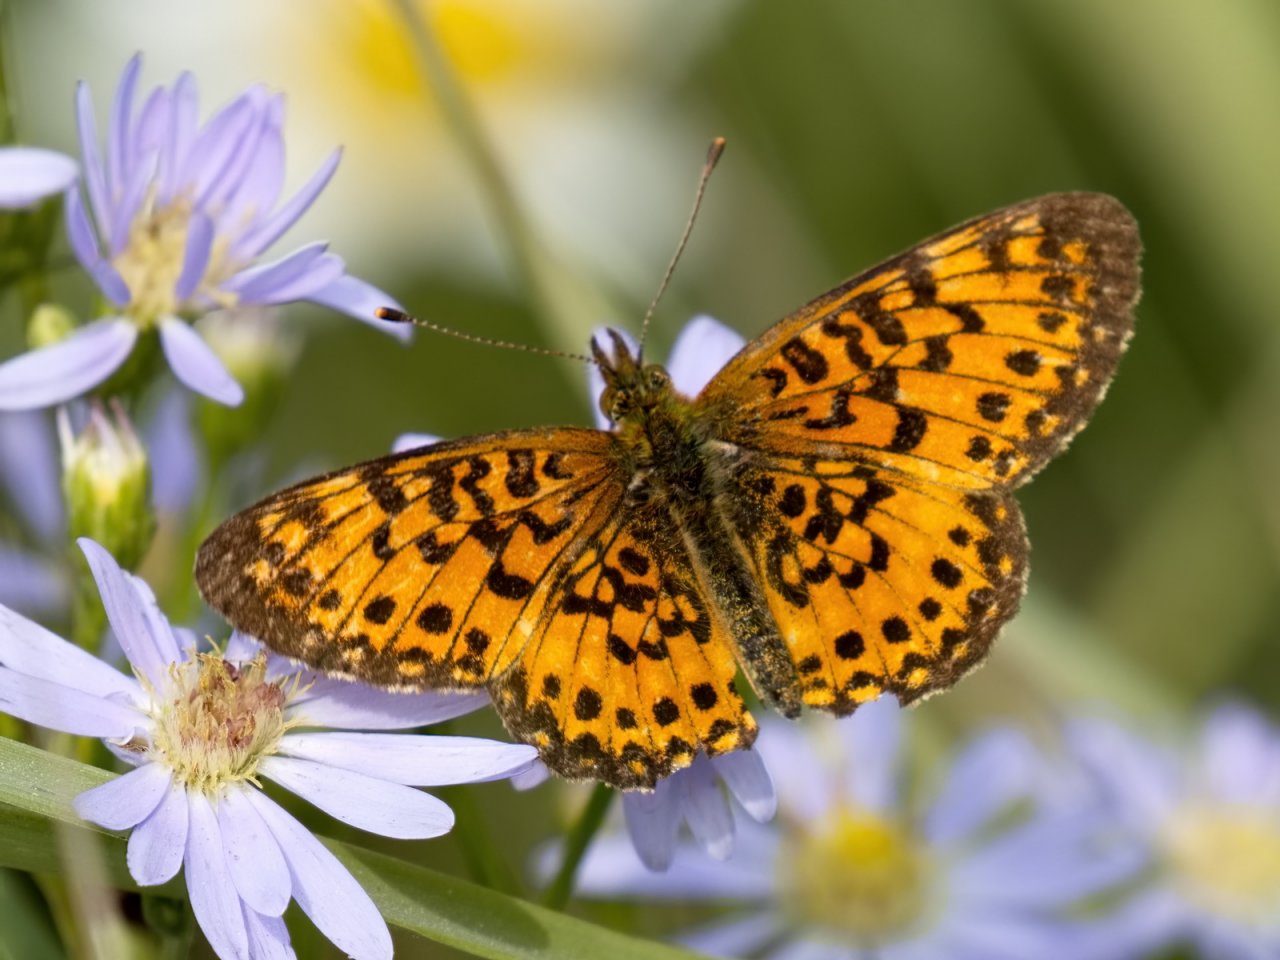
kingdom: Animalia
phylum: Arthropoda
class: Insecta
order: Lepidoptera
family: Nymphalidae
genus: Boloria
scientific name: Boloria selene
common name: Silver-bordered Fritillary
